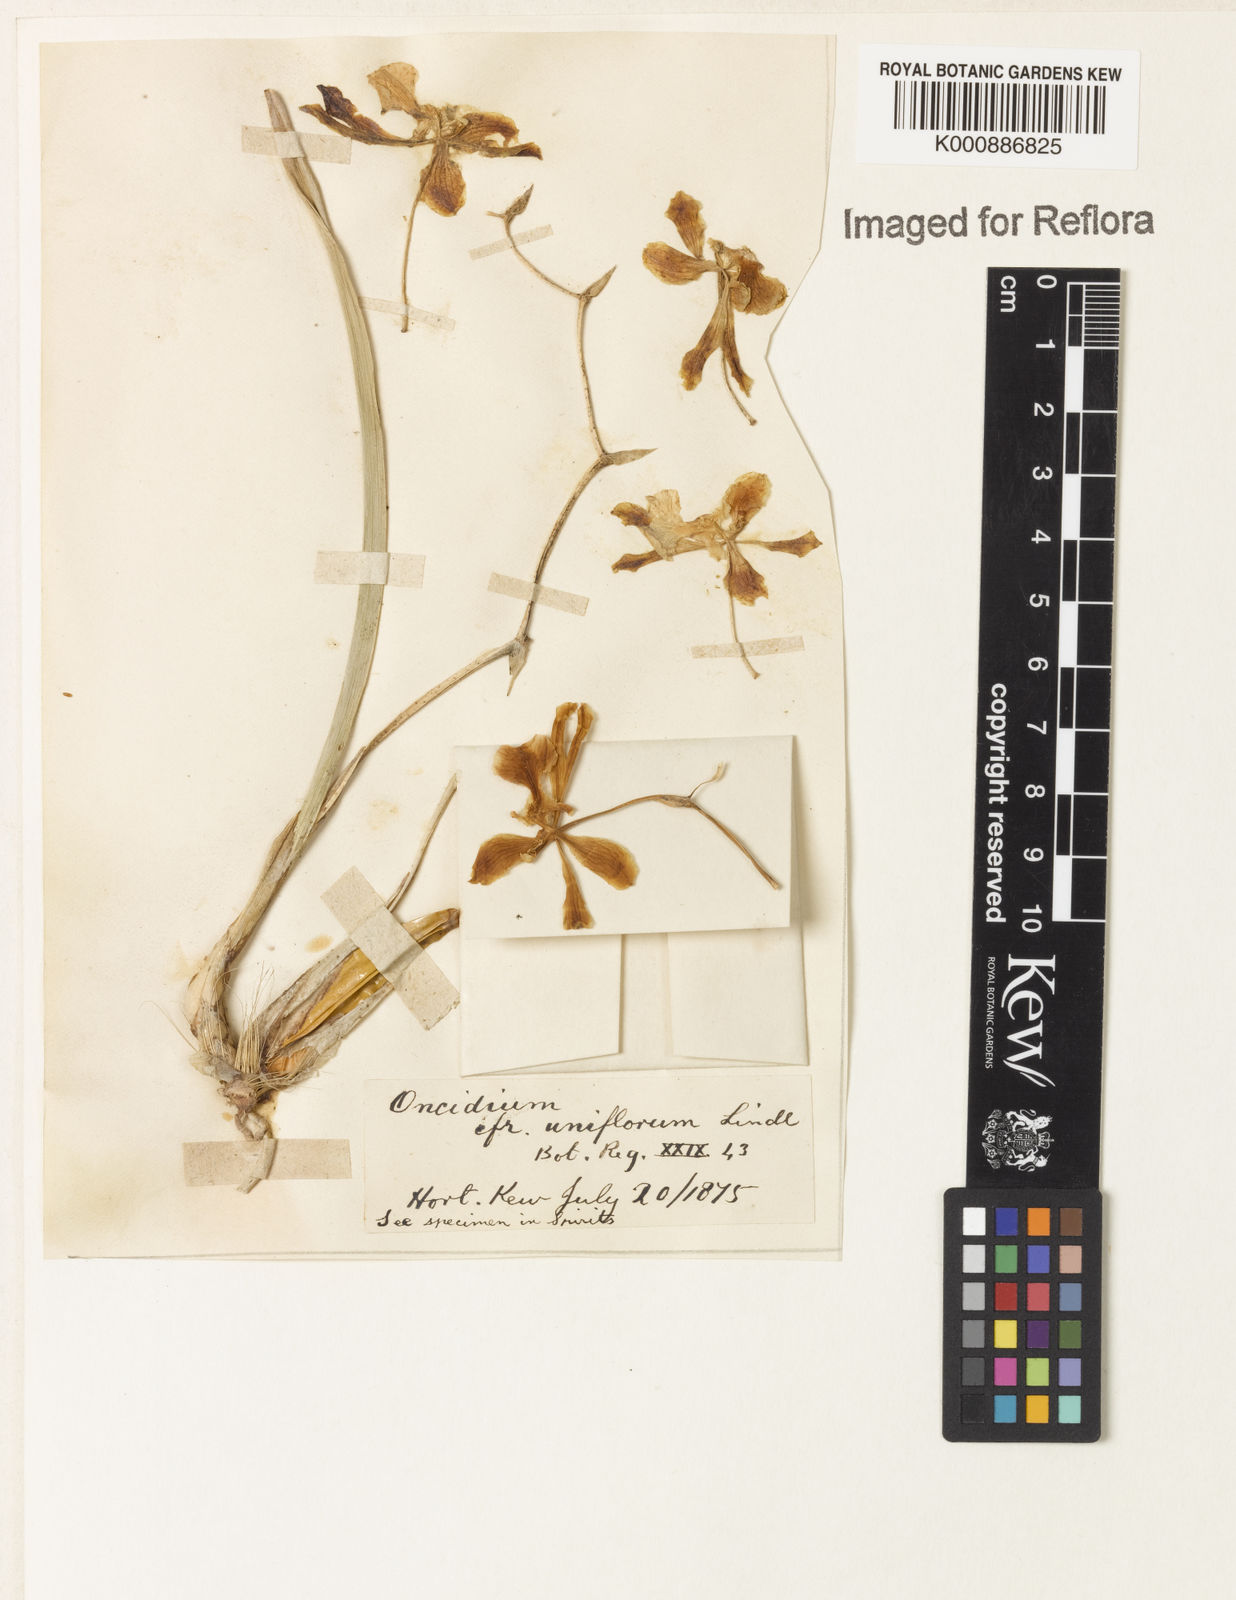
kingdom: Plantae
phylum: Tracheophyta
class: Liliopsida
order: Asparagales
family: Orchidaceae
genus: Gomesa
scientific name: Gomesa uniflora
